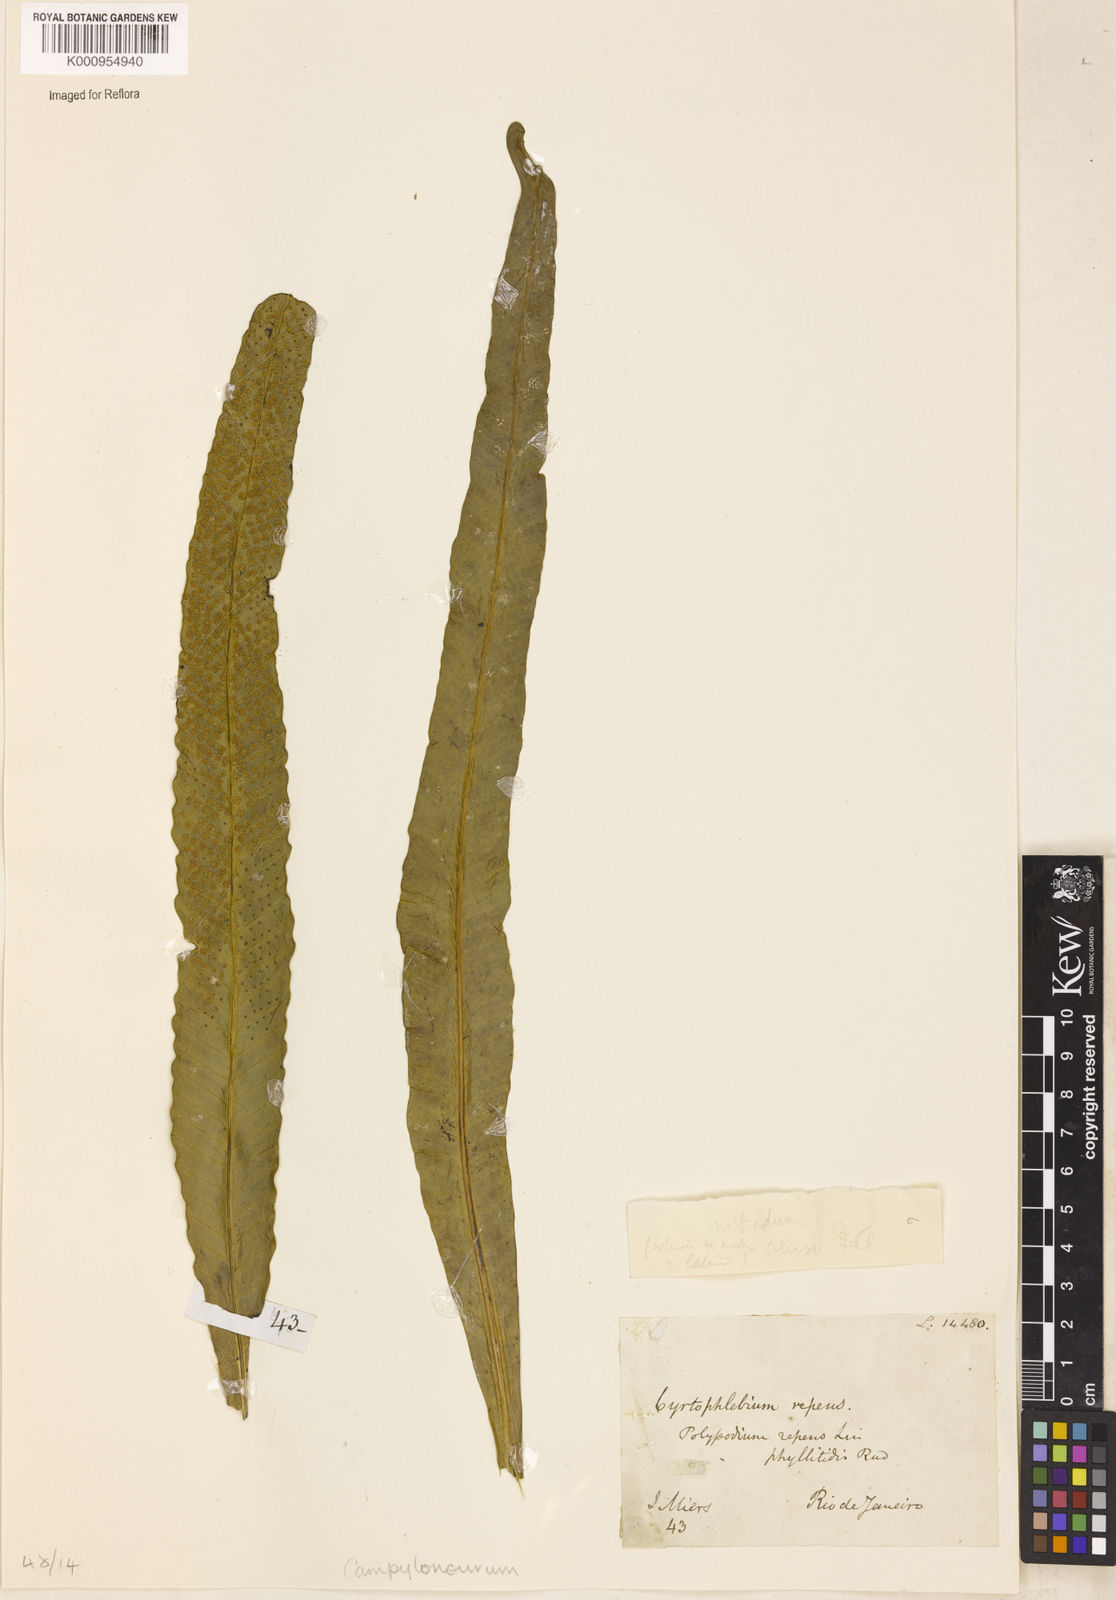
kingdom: Plantae
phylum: Tracheophyta
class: Polypodiopsida
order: Polypodiales
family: Polypodiaceae
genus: Campyloneurum
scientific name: Campyloneurum repens
